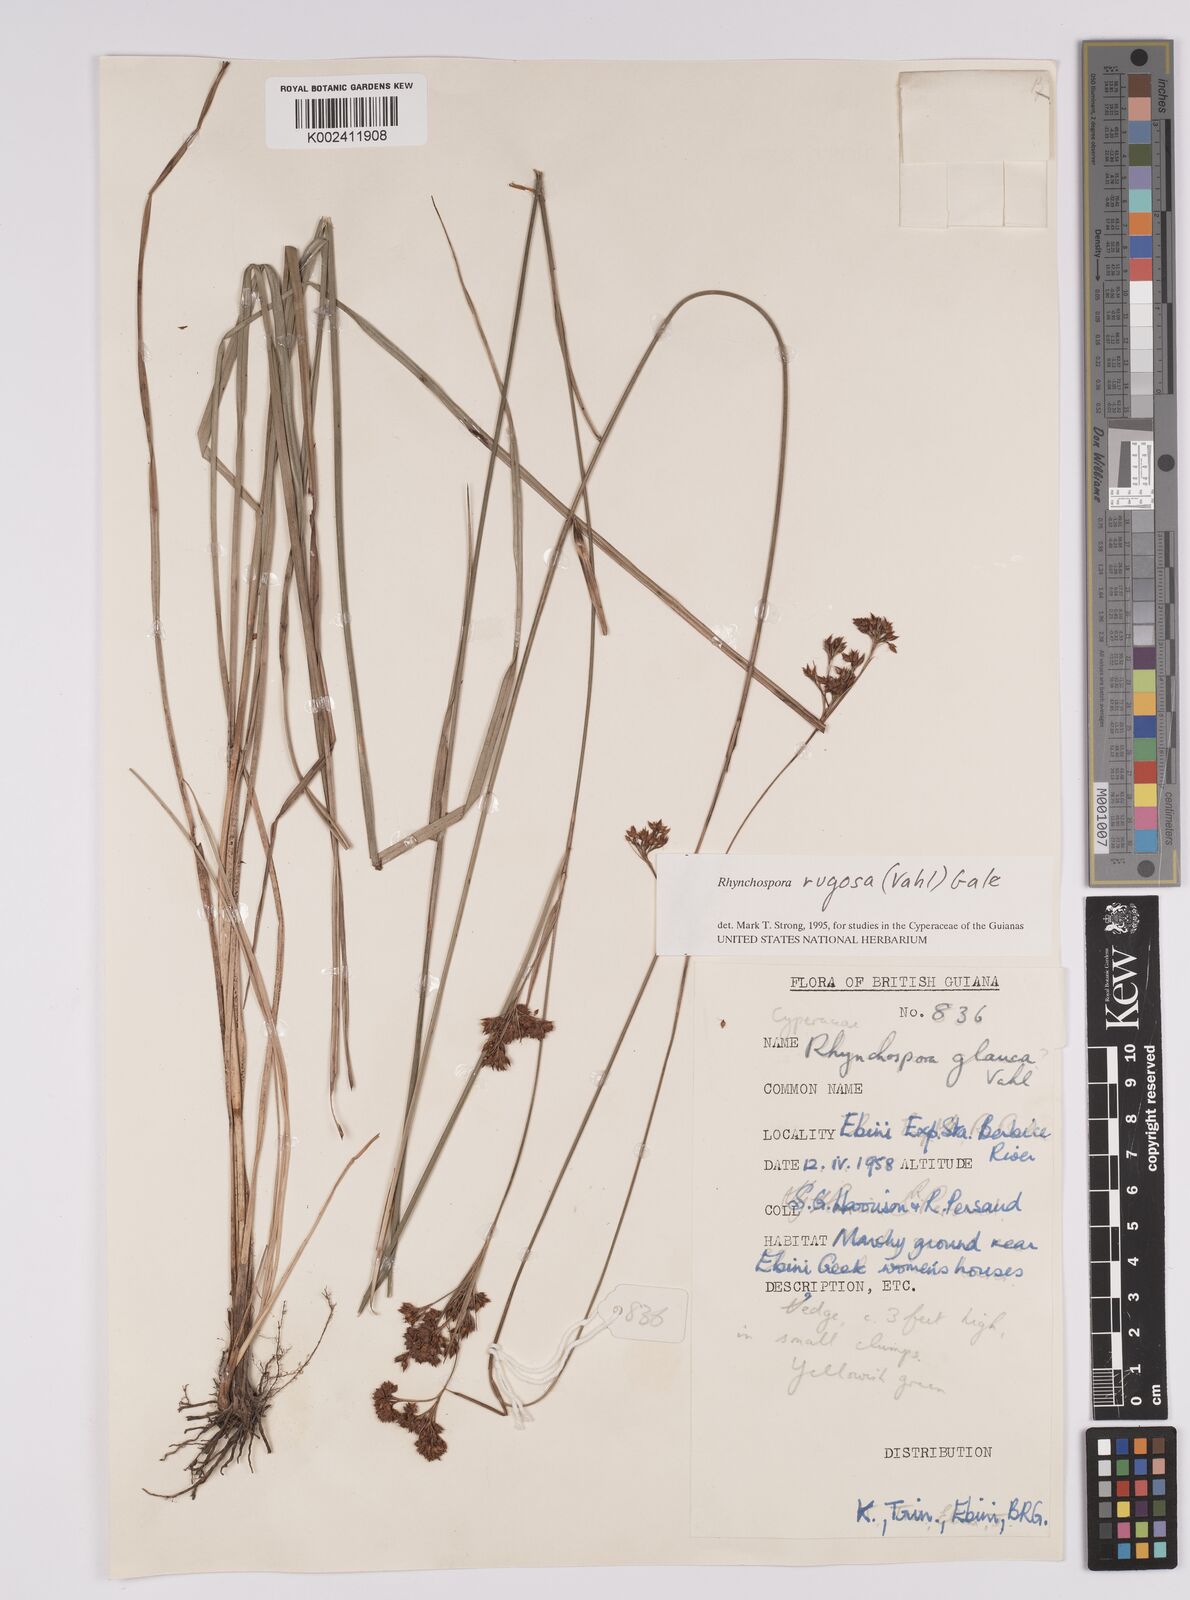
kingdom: Plantae
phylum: Tracheophyta
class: Liliopsida
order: Poales
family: Cyperaceae
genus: Rhynchospora
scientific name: Rhynchospora rugosa
